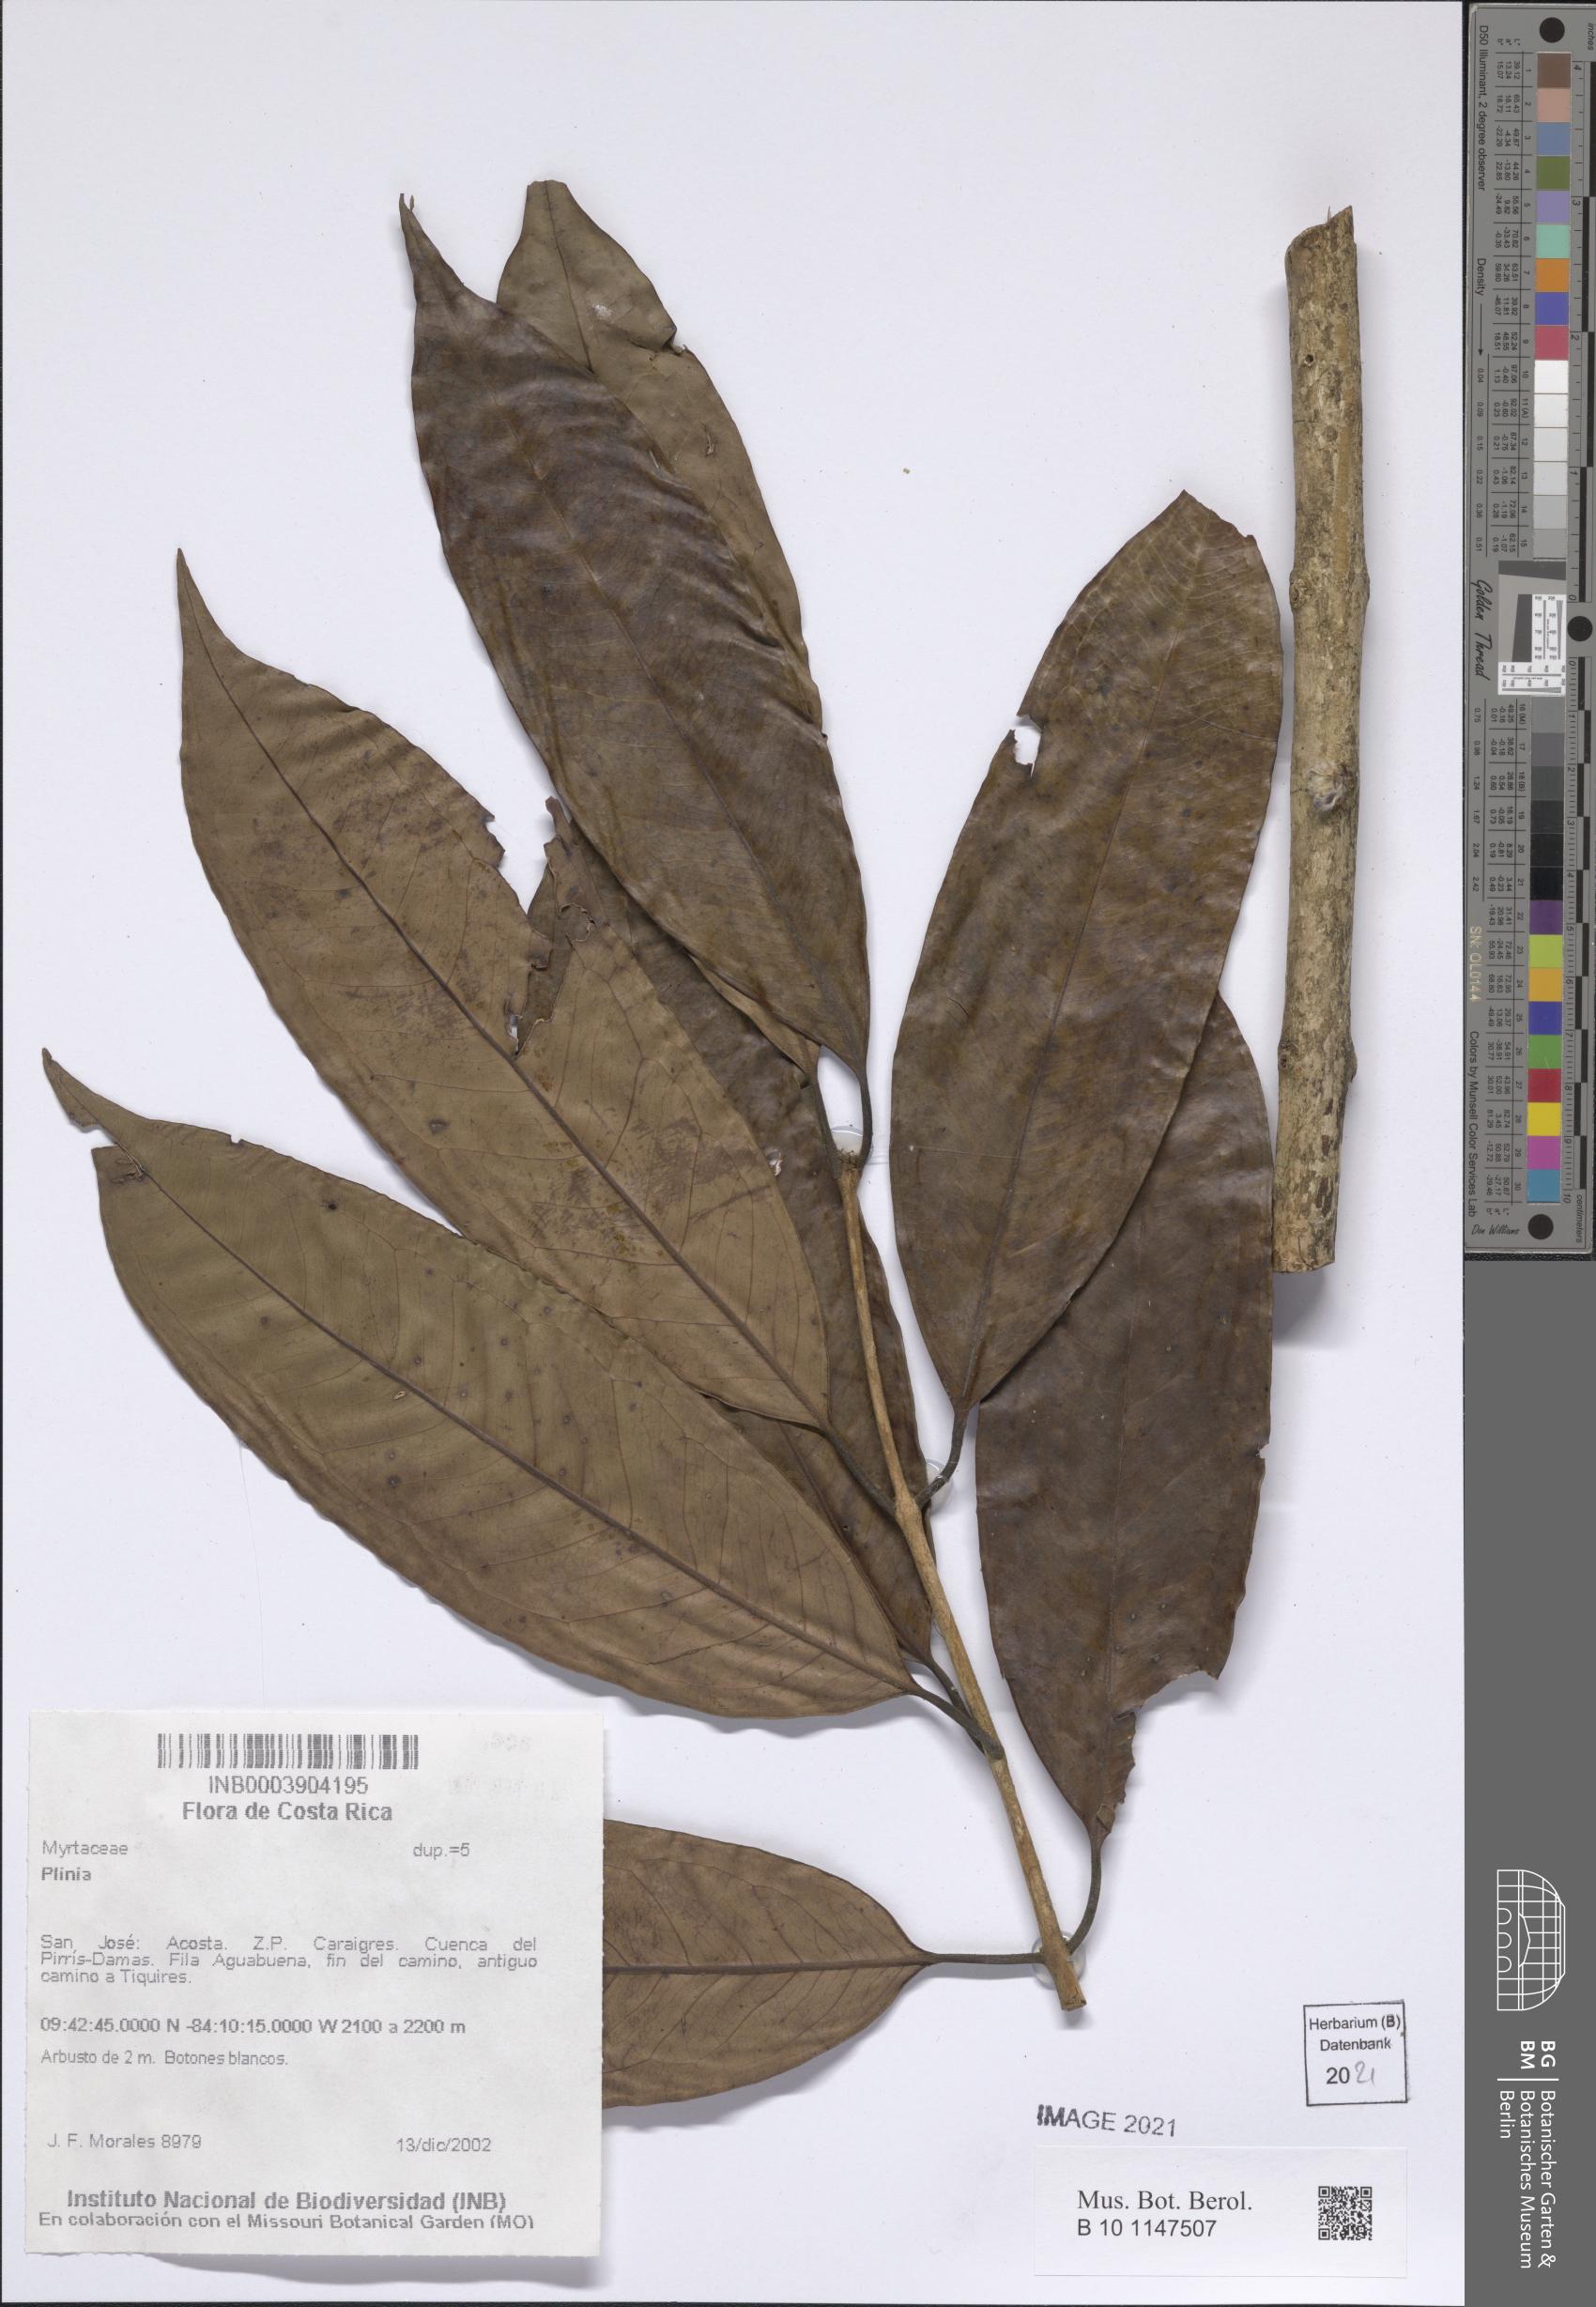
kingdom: Plantae
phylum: Tracheophyta
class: Magnoliopsida
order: Myrtales
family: Myrtaceae
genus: Plinia
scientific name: Plinia
